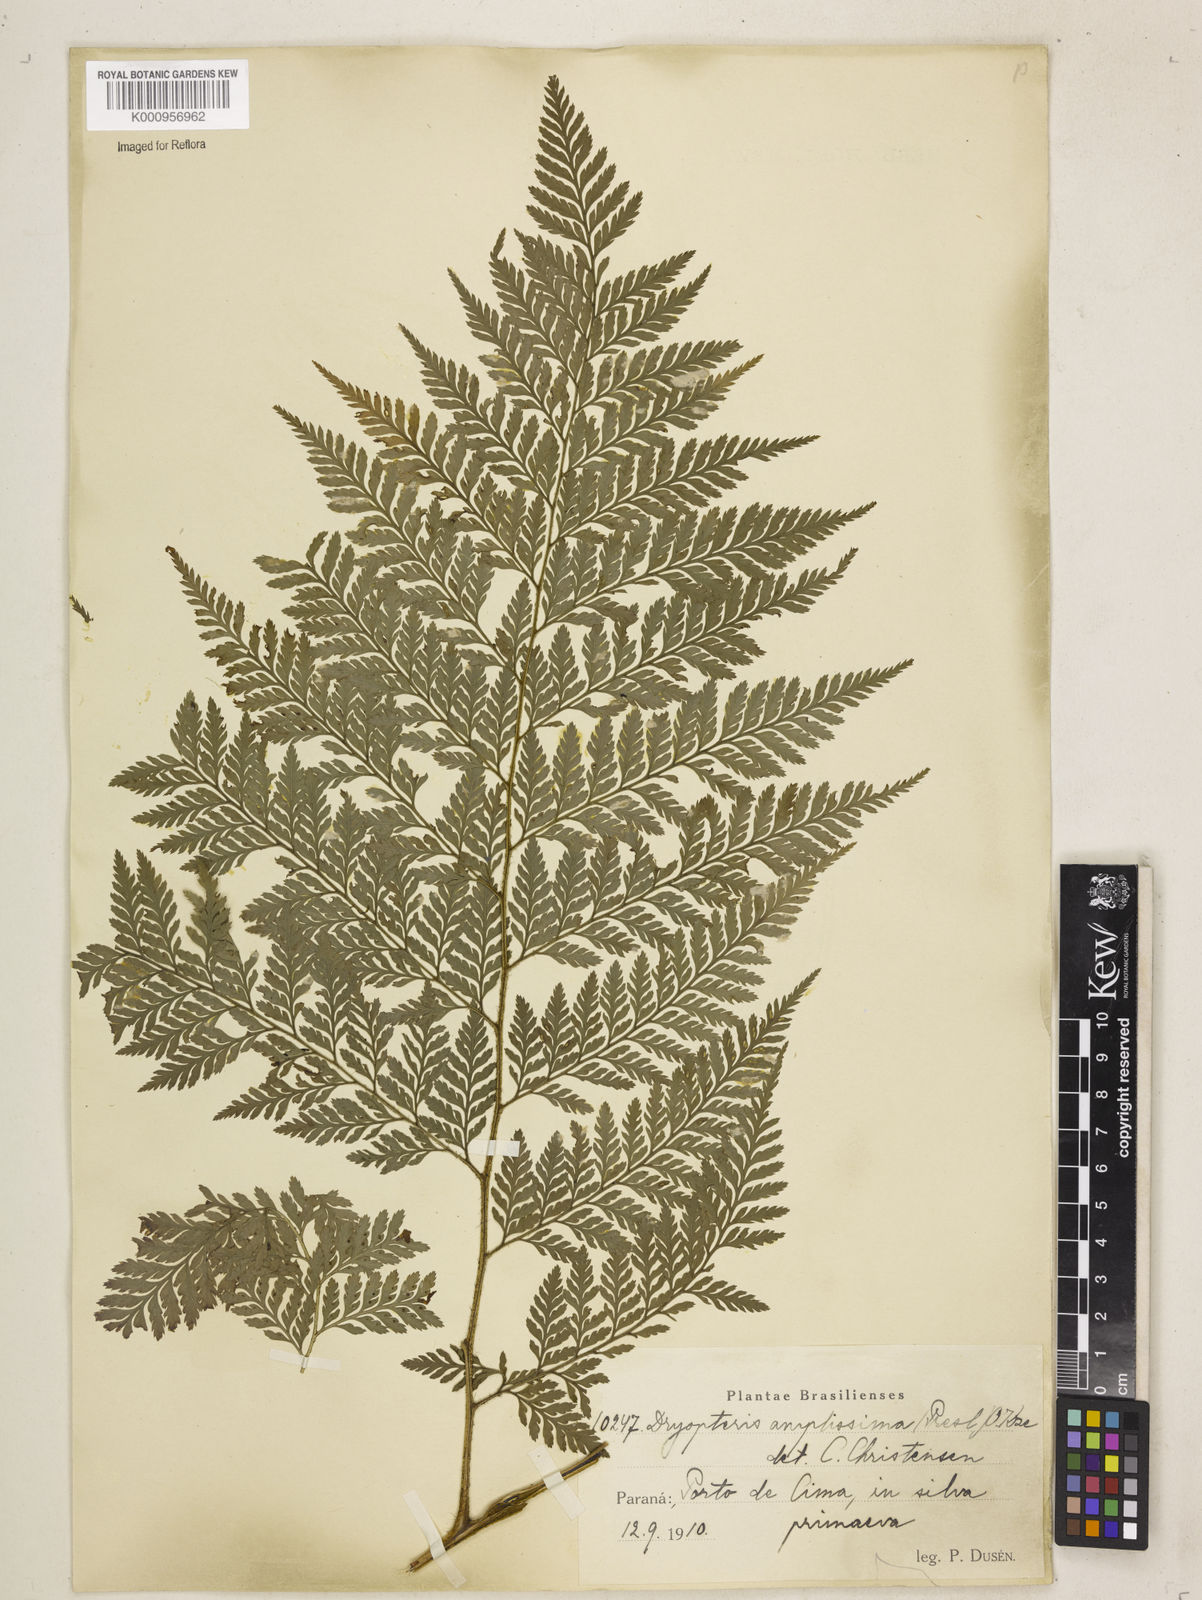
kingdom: Plantae
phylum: Tracheophyta
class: Polypodiopsida
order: Polypodiales
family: Dryopteridaceae
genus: Lastreopsis
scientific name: Lastreopsis amplissima
